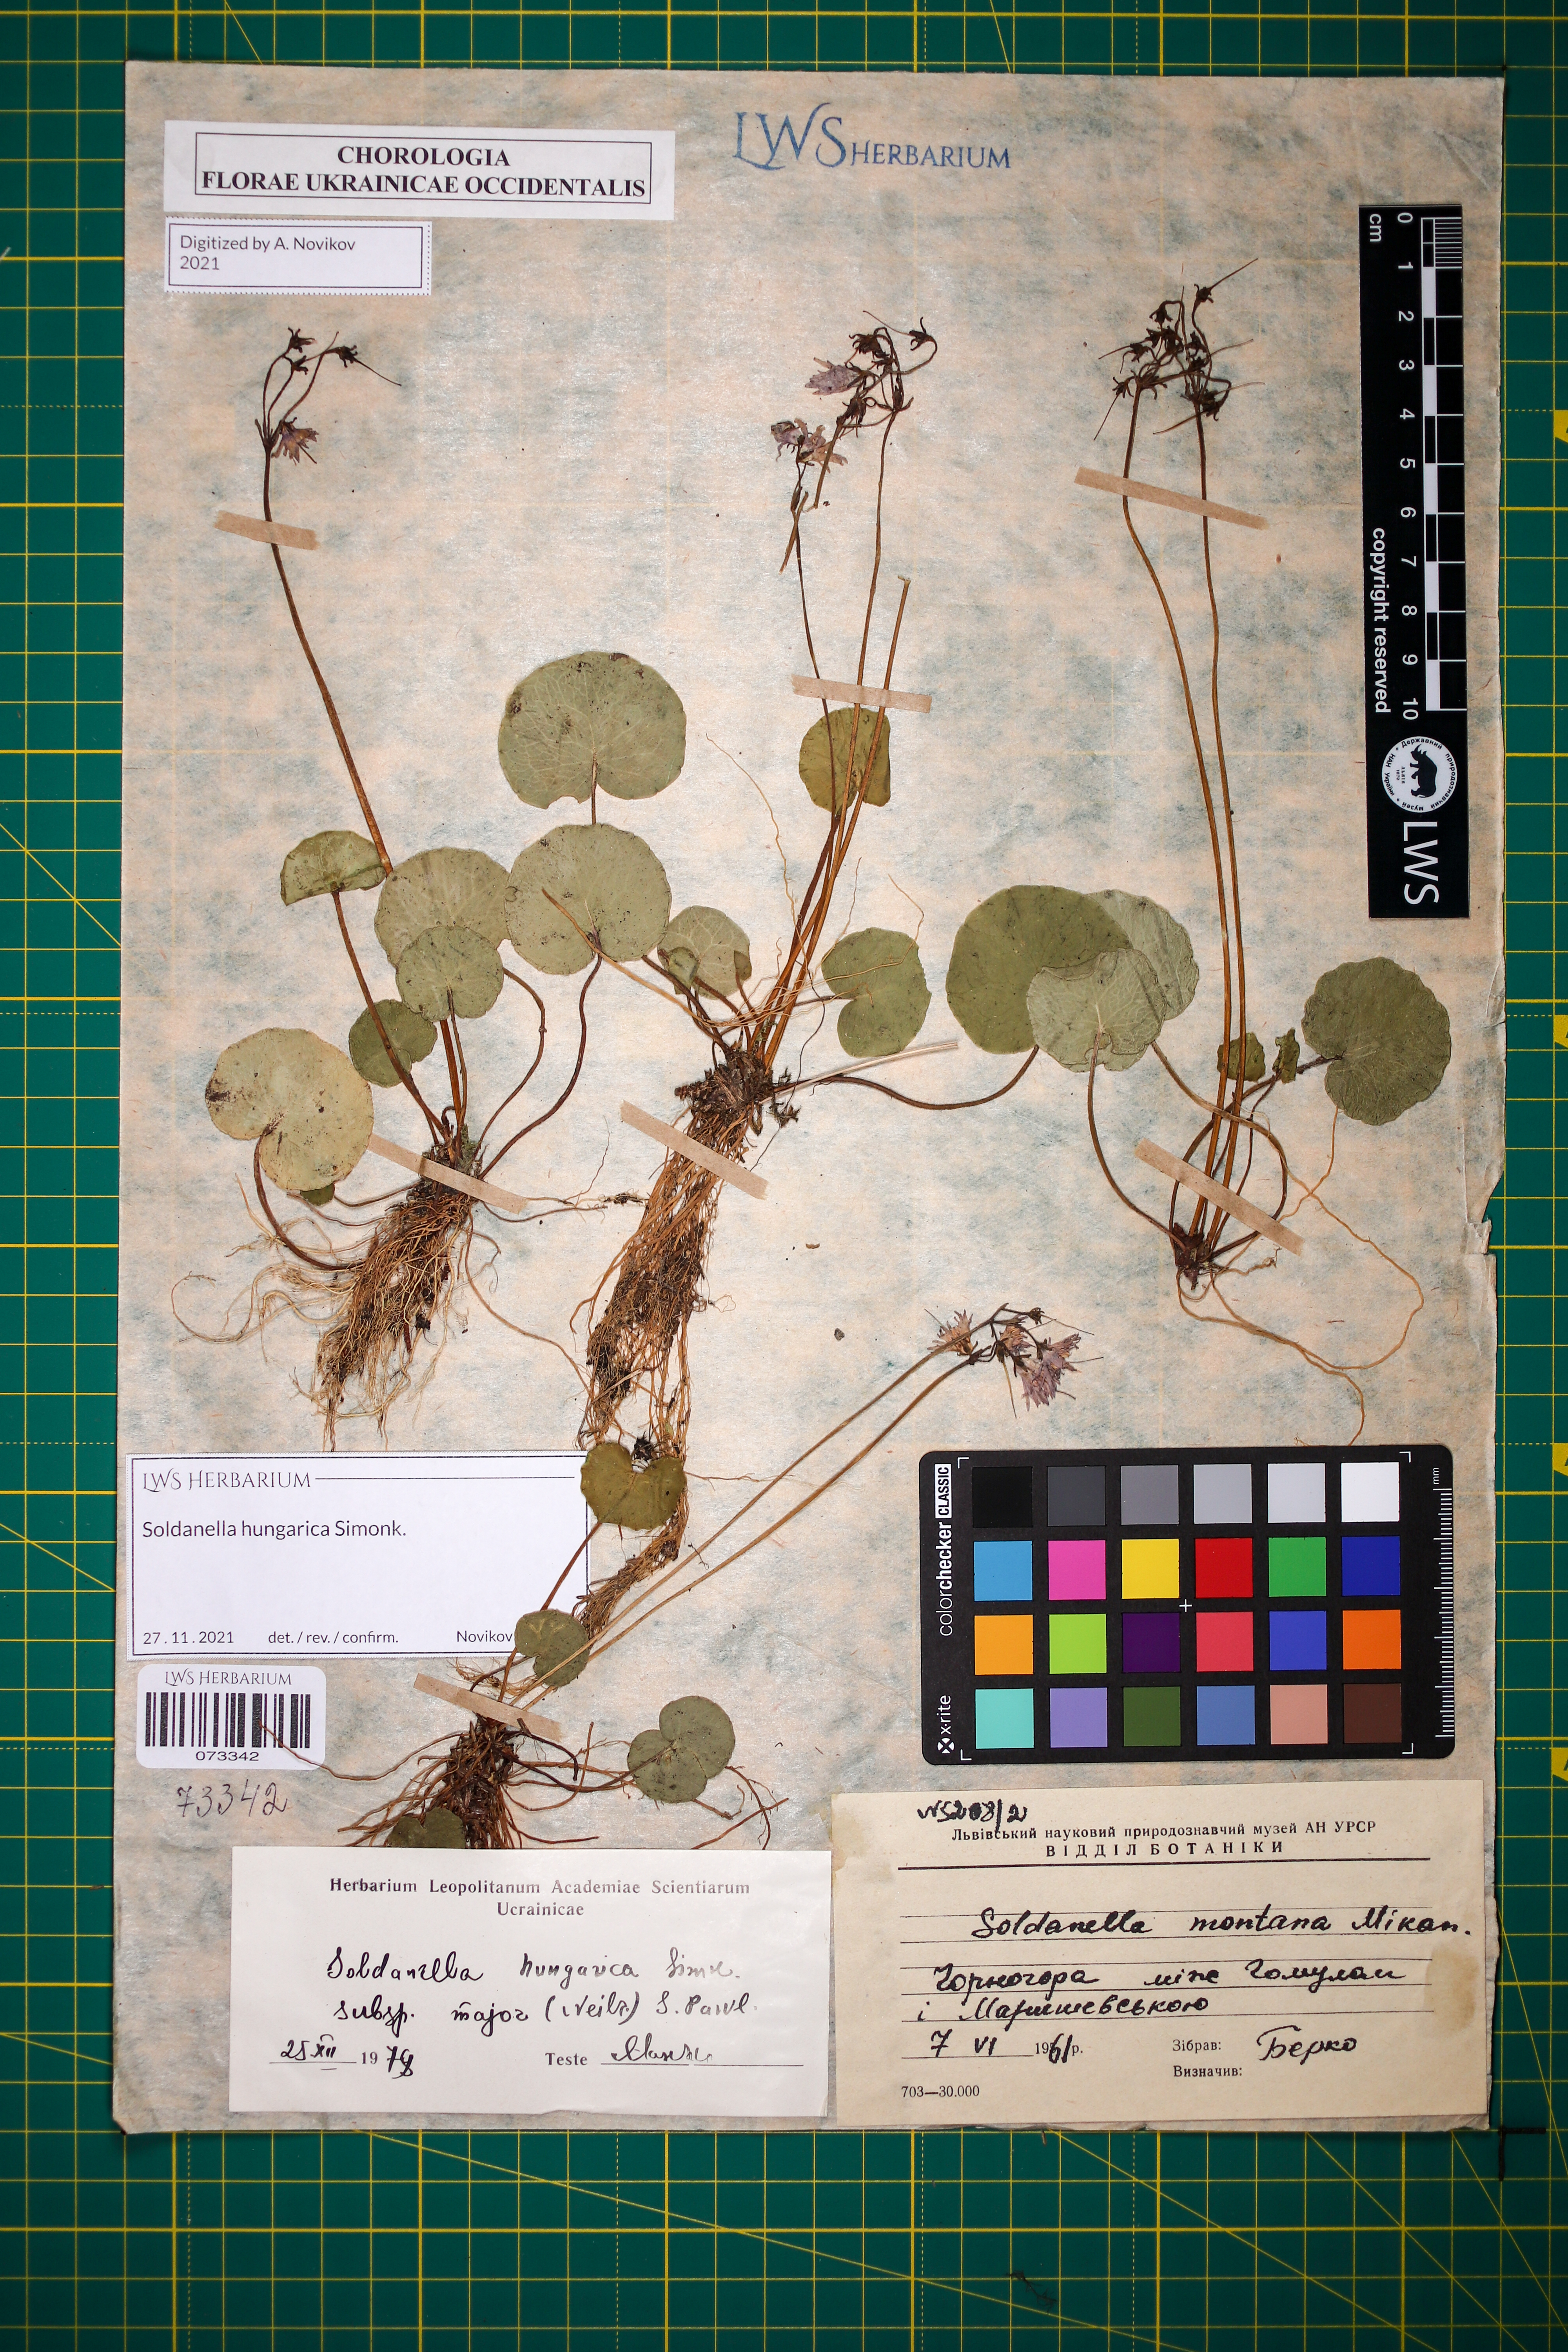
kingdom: Plantae
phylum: Tracheophyta
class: Magnoliopsida
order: Ericales
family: Primulaceae
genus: Soldanella
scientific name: Soldanella hungarica
